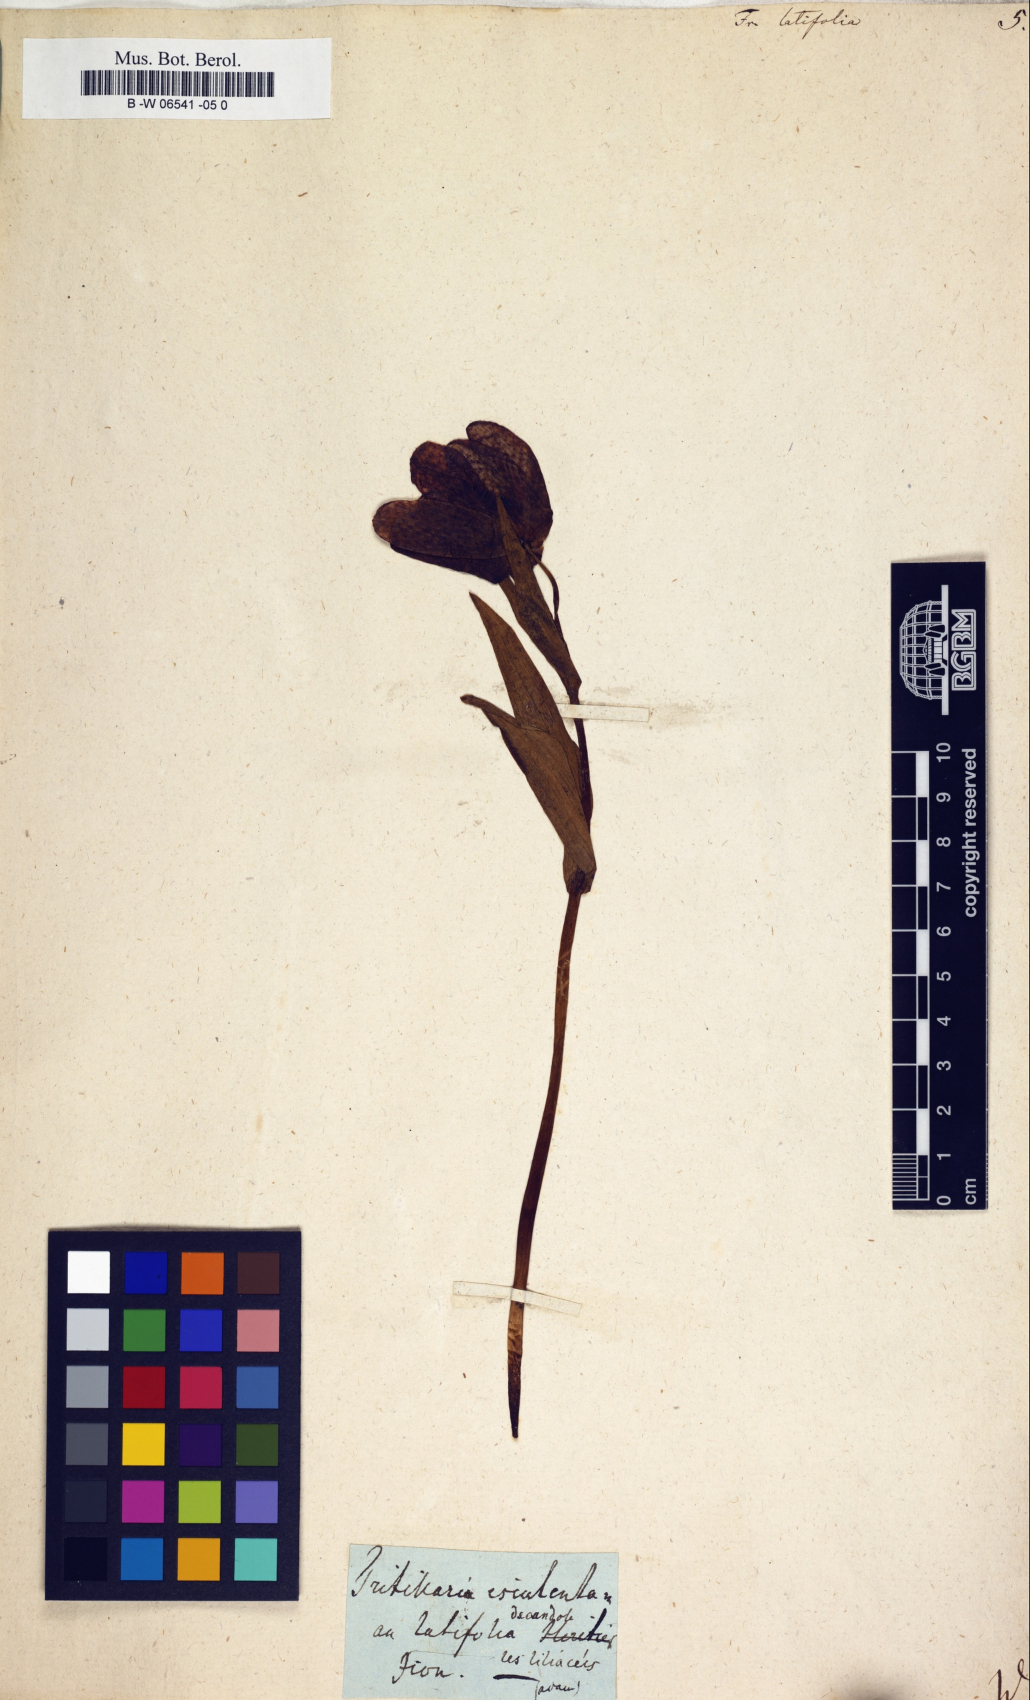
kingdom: Plantae
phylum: Tracheophyta
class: Liliopsida
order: Liliales
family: Liliaceae
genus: Fritillaria
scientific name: Fritillaria latifolia
